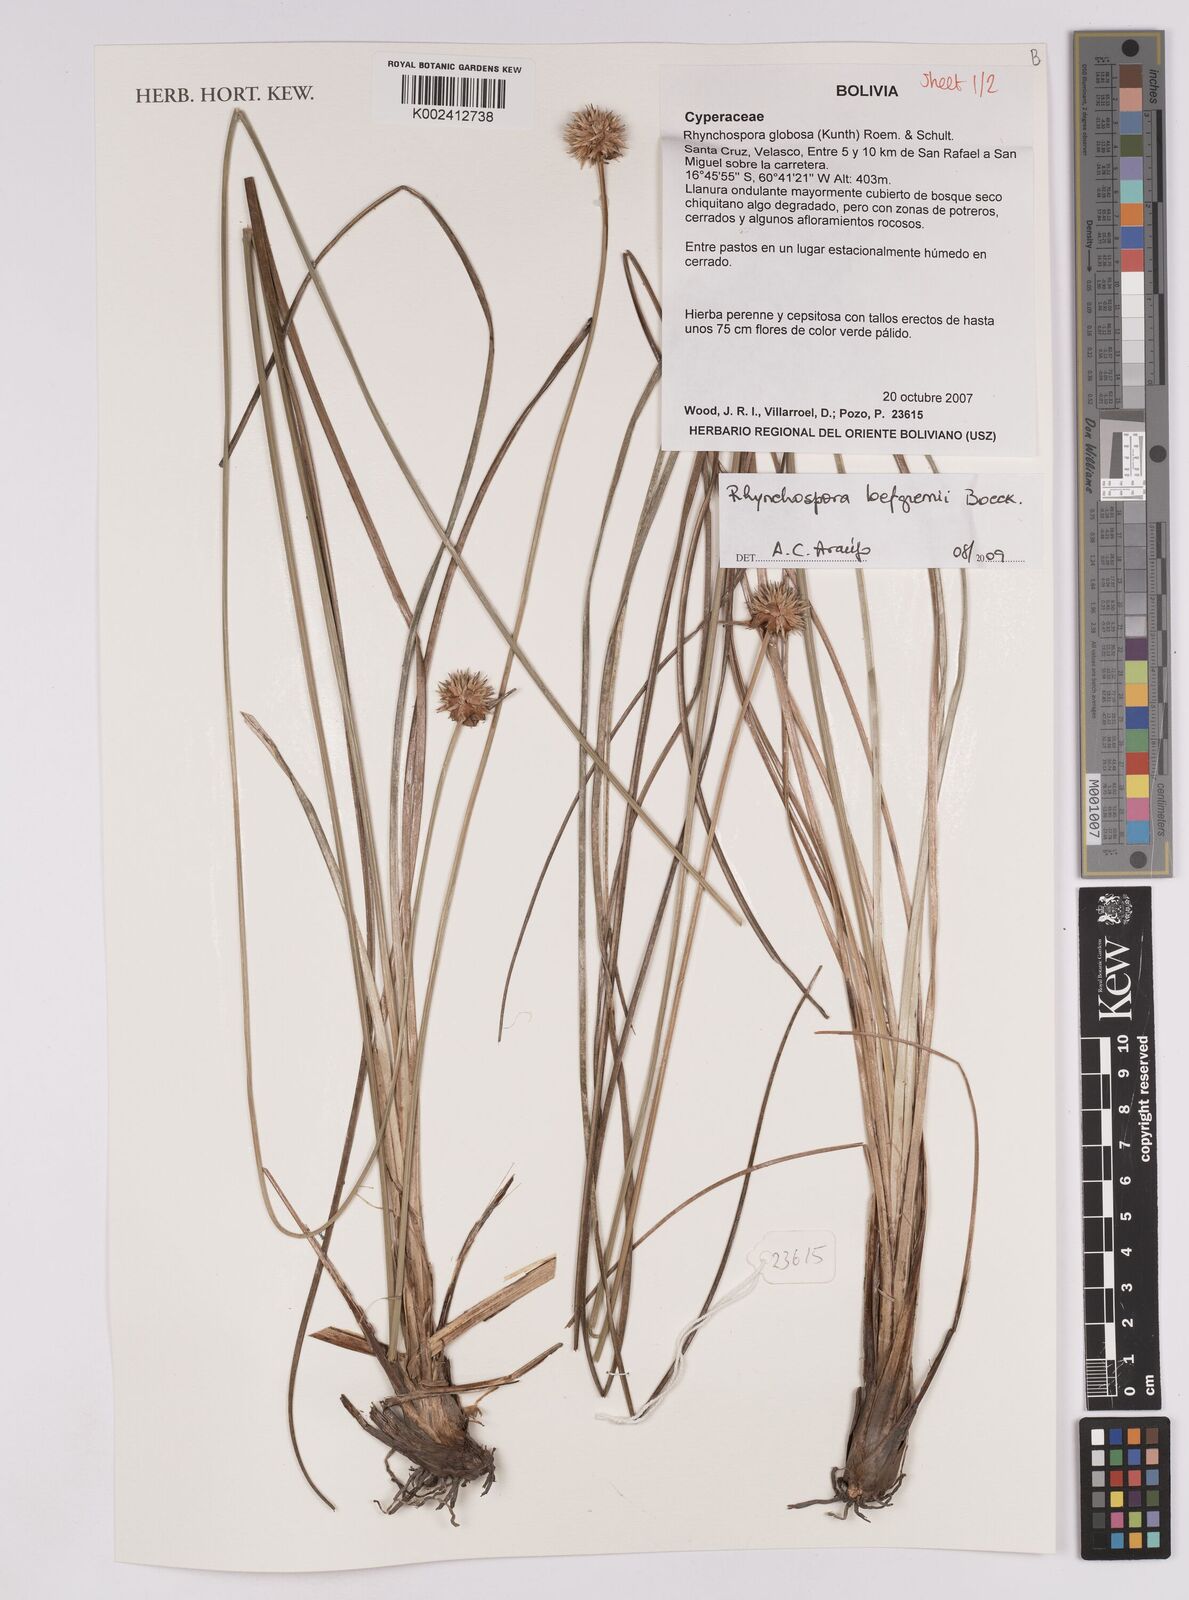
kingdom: Plantae
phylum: Tracheophyta
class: Liliopsida
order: Poales
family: Cyperaceae
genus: Rhynchospora
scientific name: Rhynchospora loefgrenii
